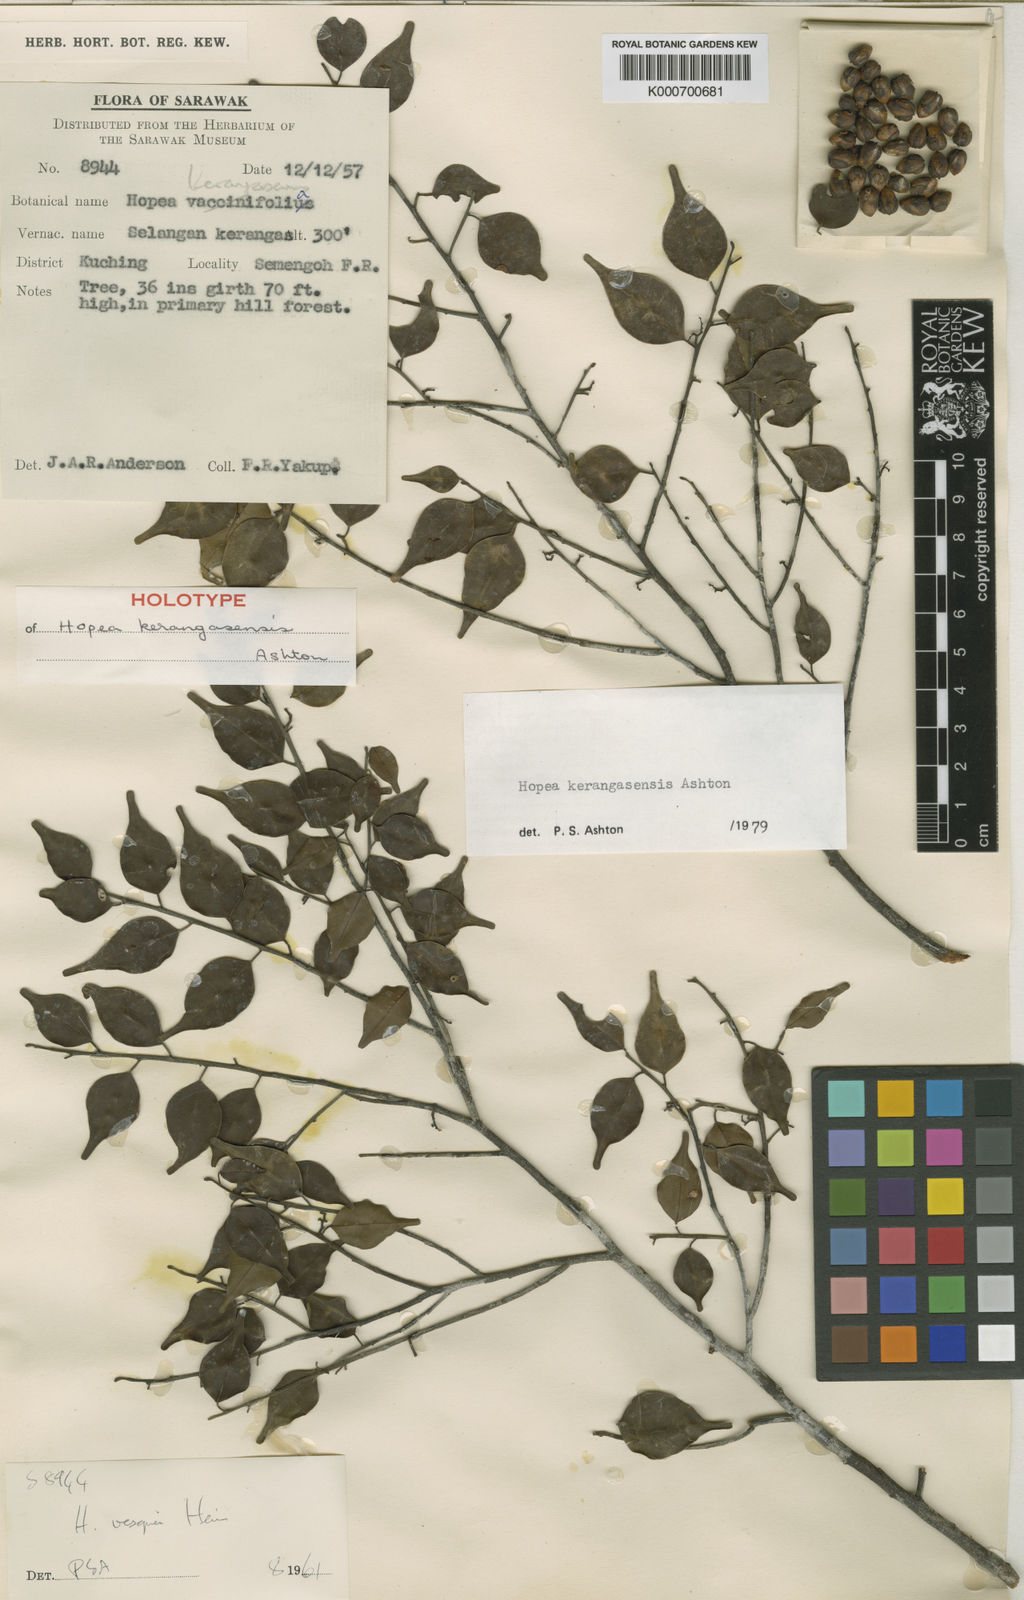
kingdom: Plantae
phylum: Tracheophyta
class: Magnoliopsida
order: Malvales
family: Dipterocarpaceae
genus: Hopea
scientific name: Hopea kerangasensis
